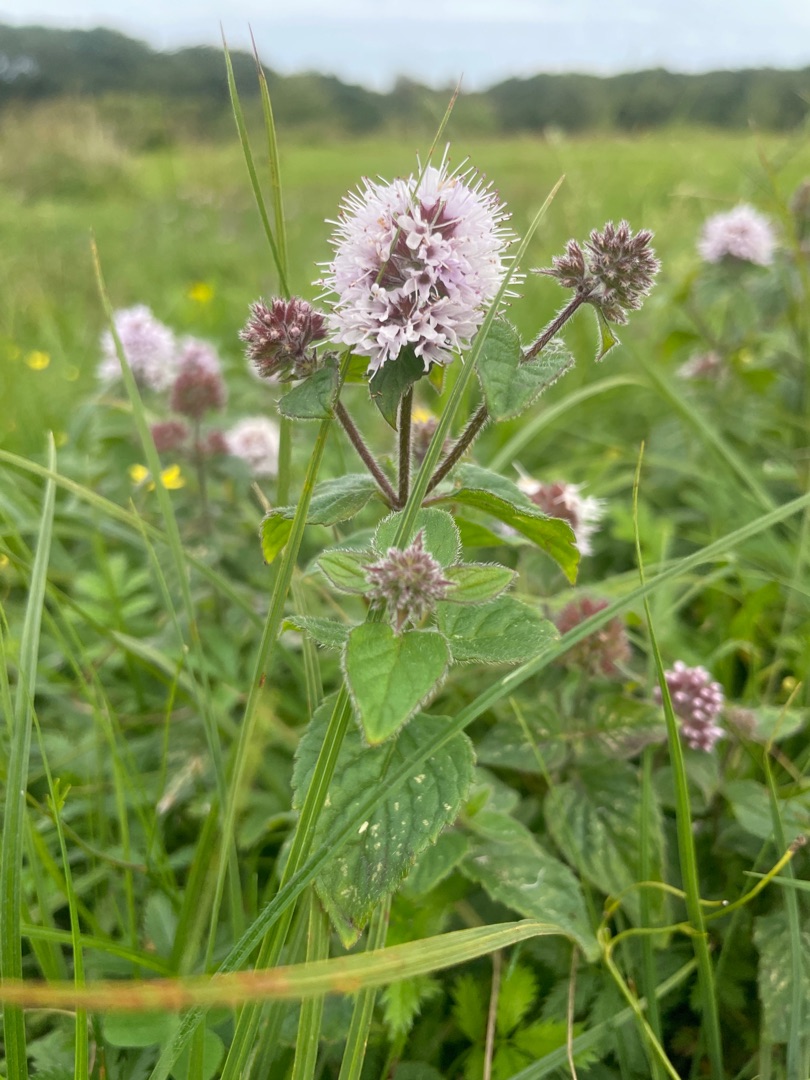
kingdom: Plantae
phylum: Tracheophyta
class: Magnoliopsida
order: Lamiales
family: Lamiaceae
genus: Mentha
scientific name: Mentha aquatica
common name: Vand-mynte
